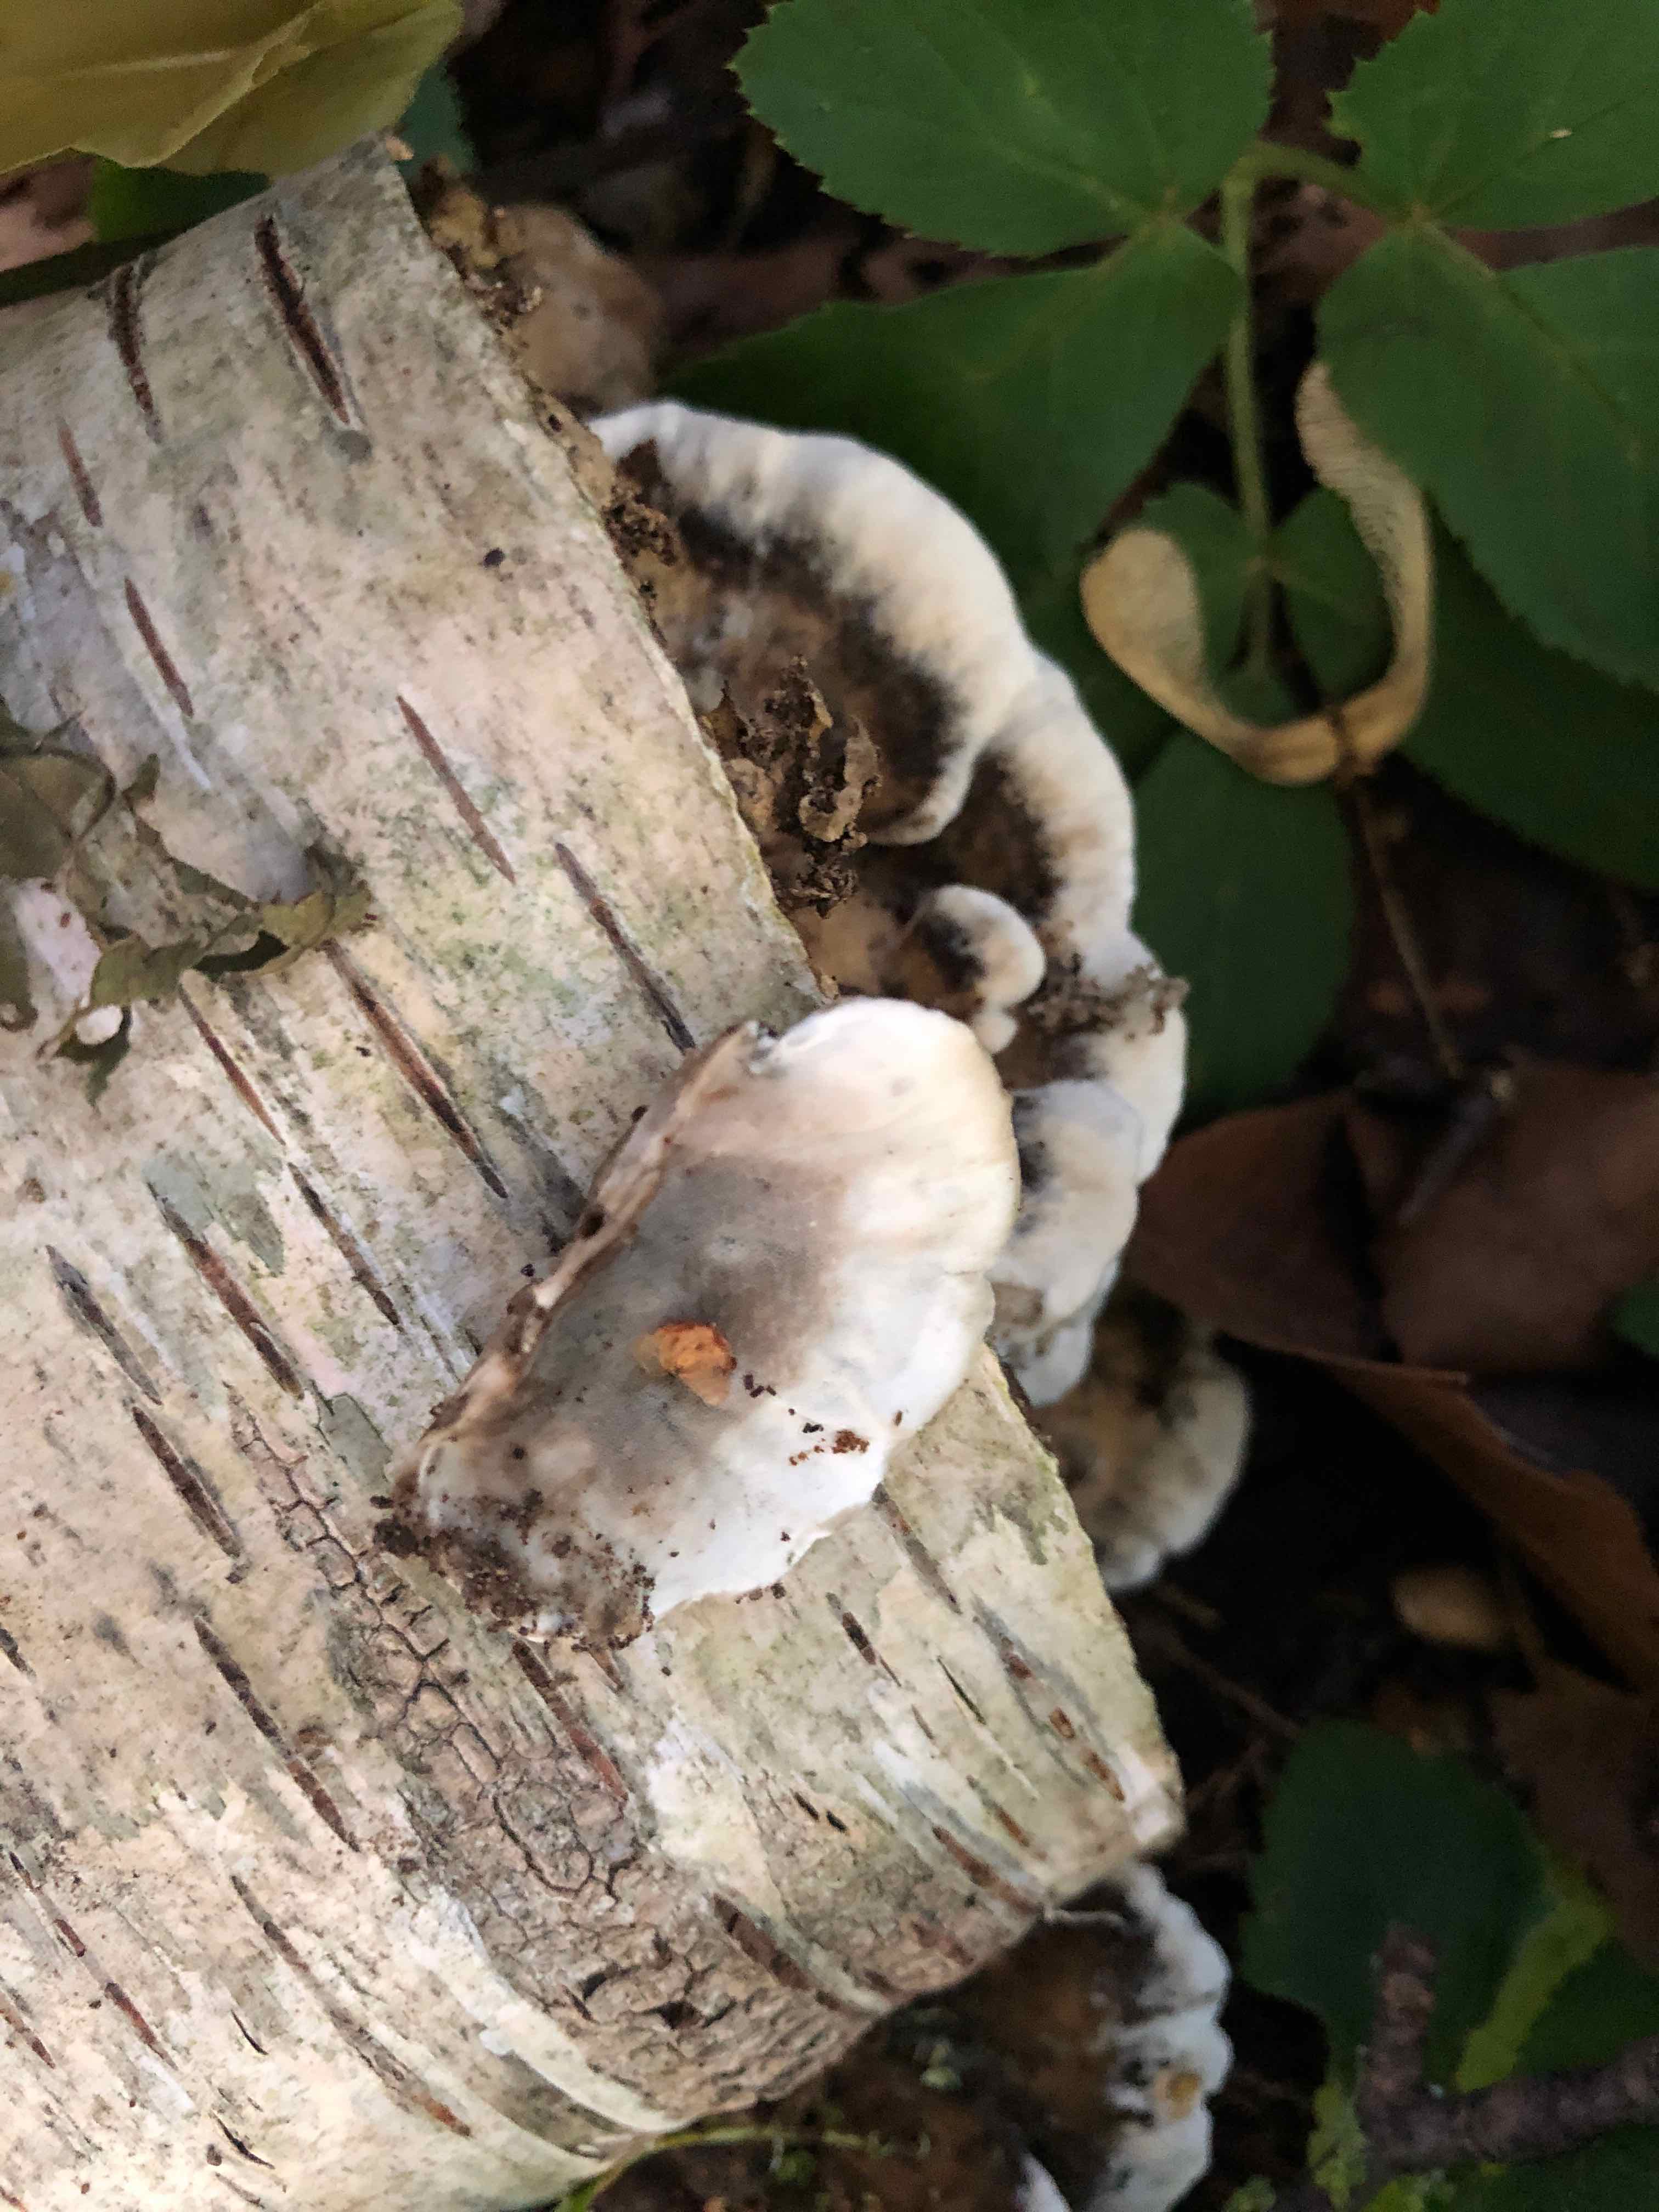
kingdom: Fungi
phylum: Basidiomycota
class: Agaricomycetes
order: Polyporales
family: Phanerochaetaceae
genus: Bjerkandera
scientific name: Bjerkandera adusta
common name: sveden sodporesvamp
